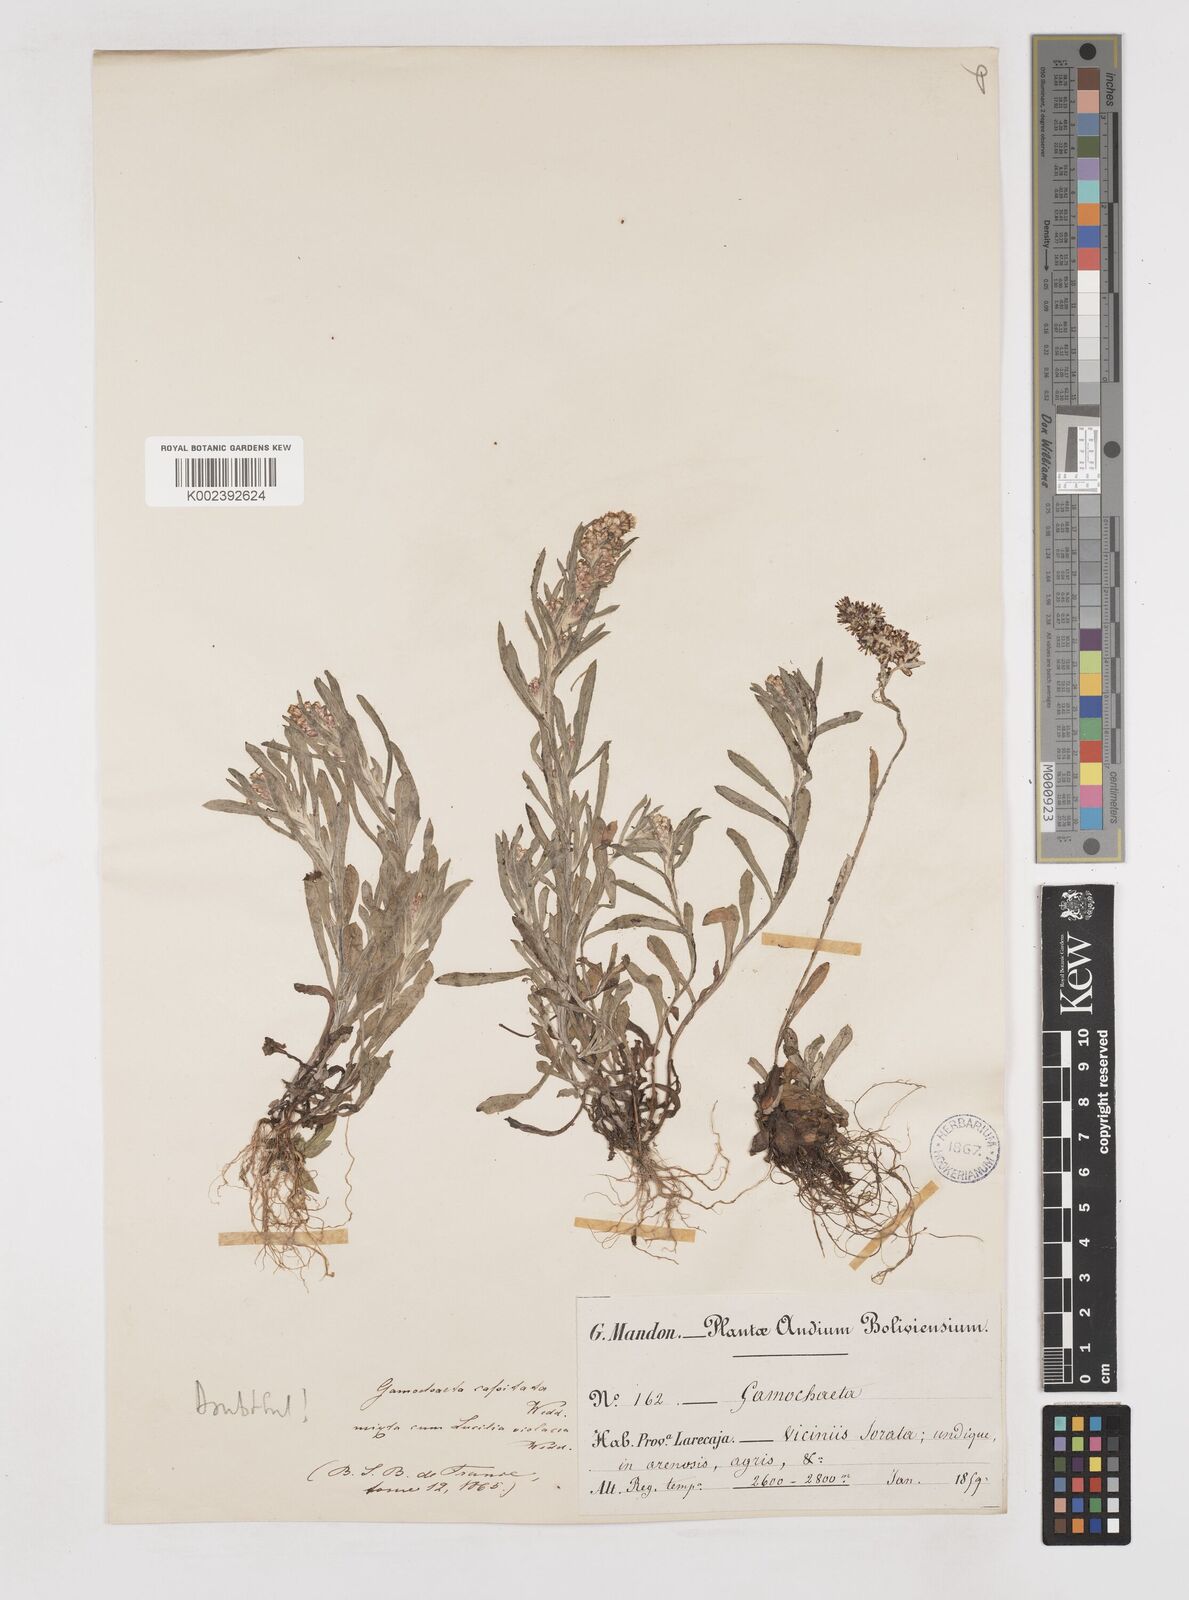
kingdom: Plantae
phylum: Tracheophyta
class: Magnoliopsida
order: Asterales
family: Asteraceae
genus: Gamochaeta
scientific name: Gamochaeta americana
